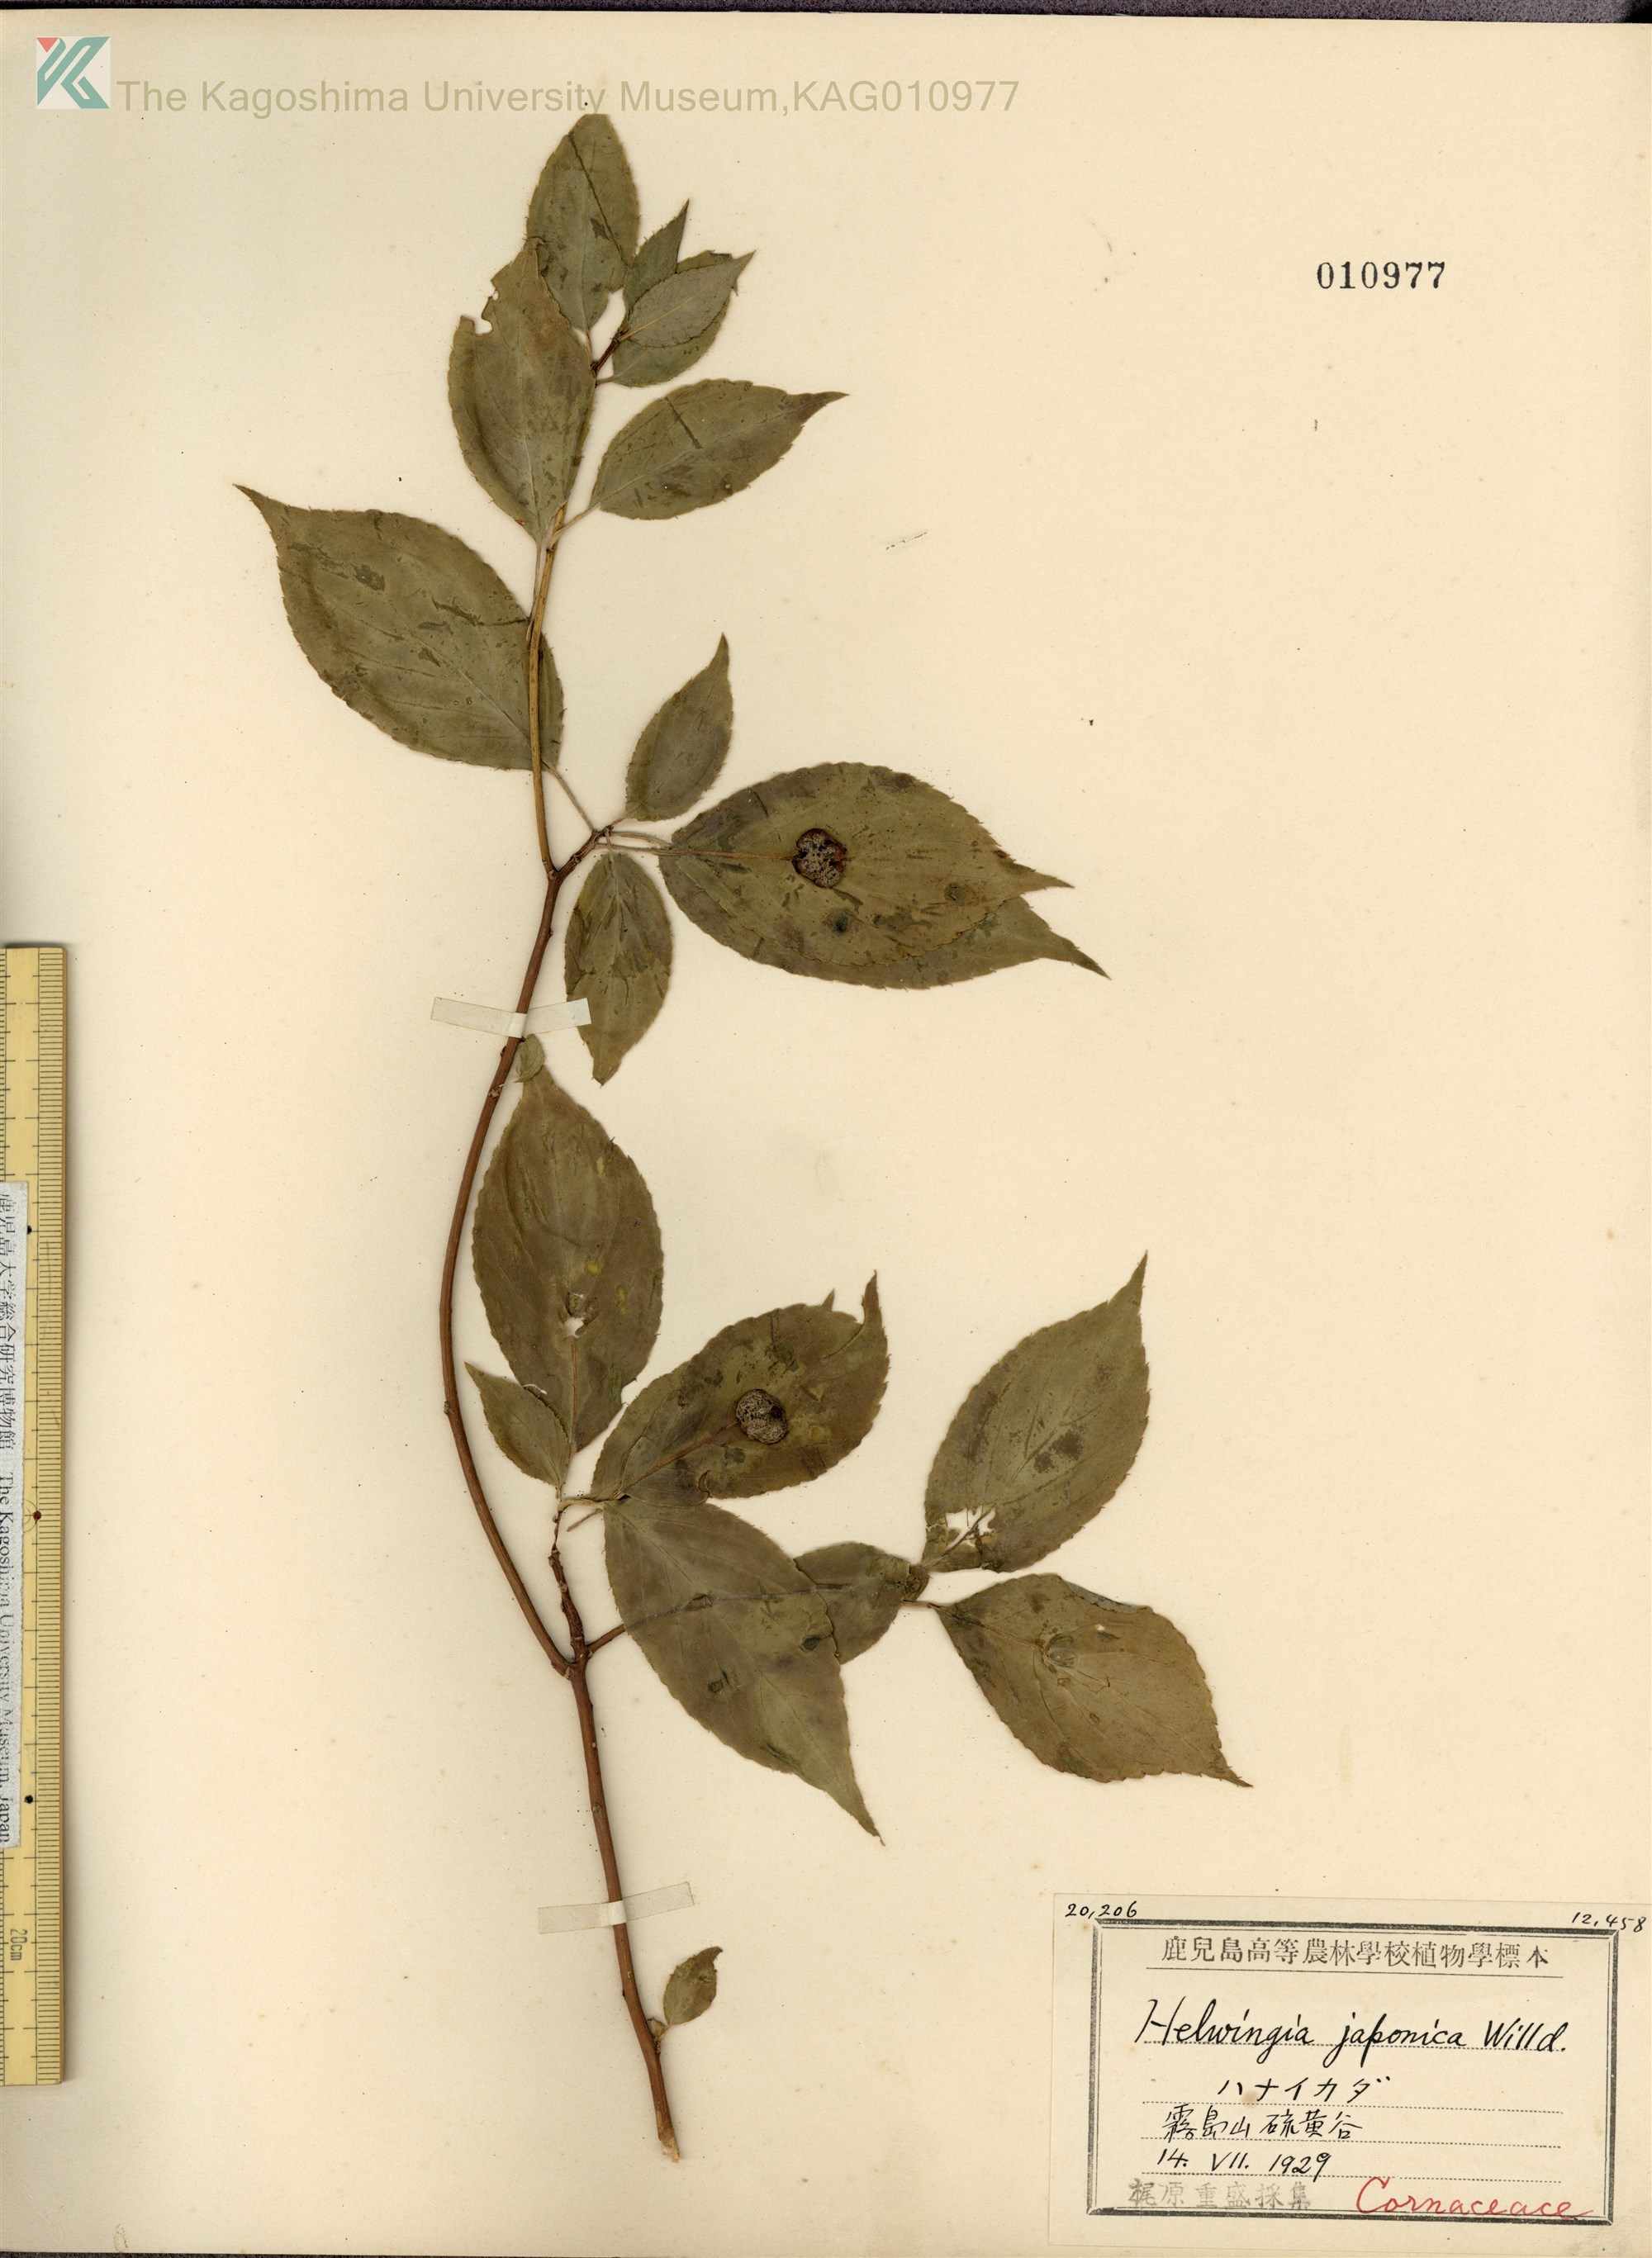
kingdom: Plantae
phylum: Tracheophyta
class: Magnoliopsida
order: Aquifoliales
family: Helwingiaceae
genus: Helwingia
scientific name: Helwingia japonica
